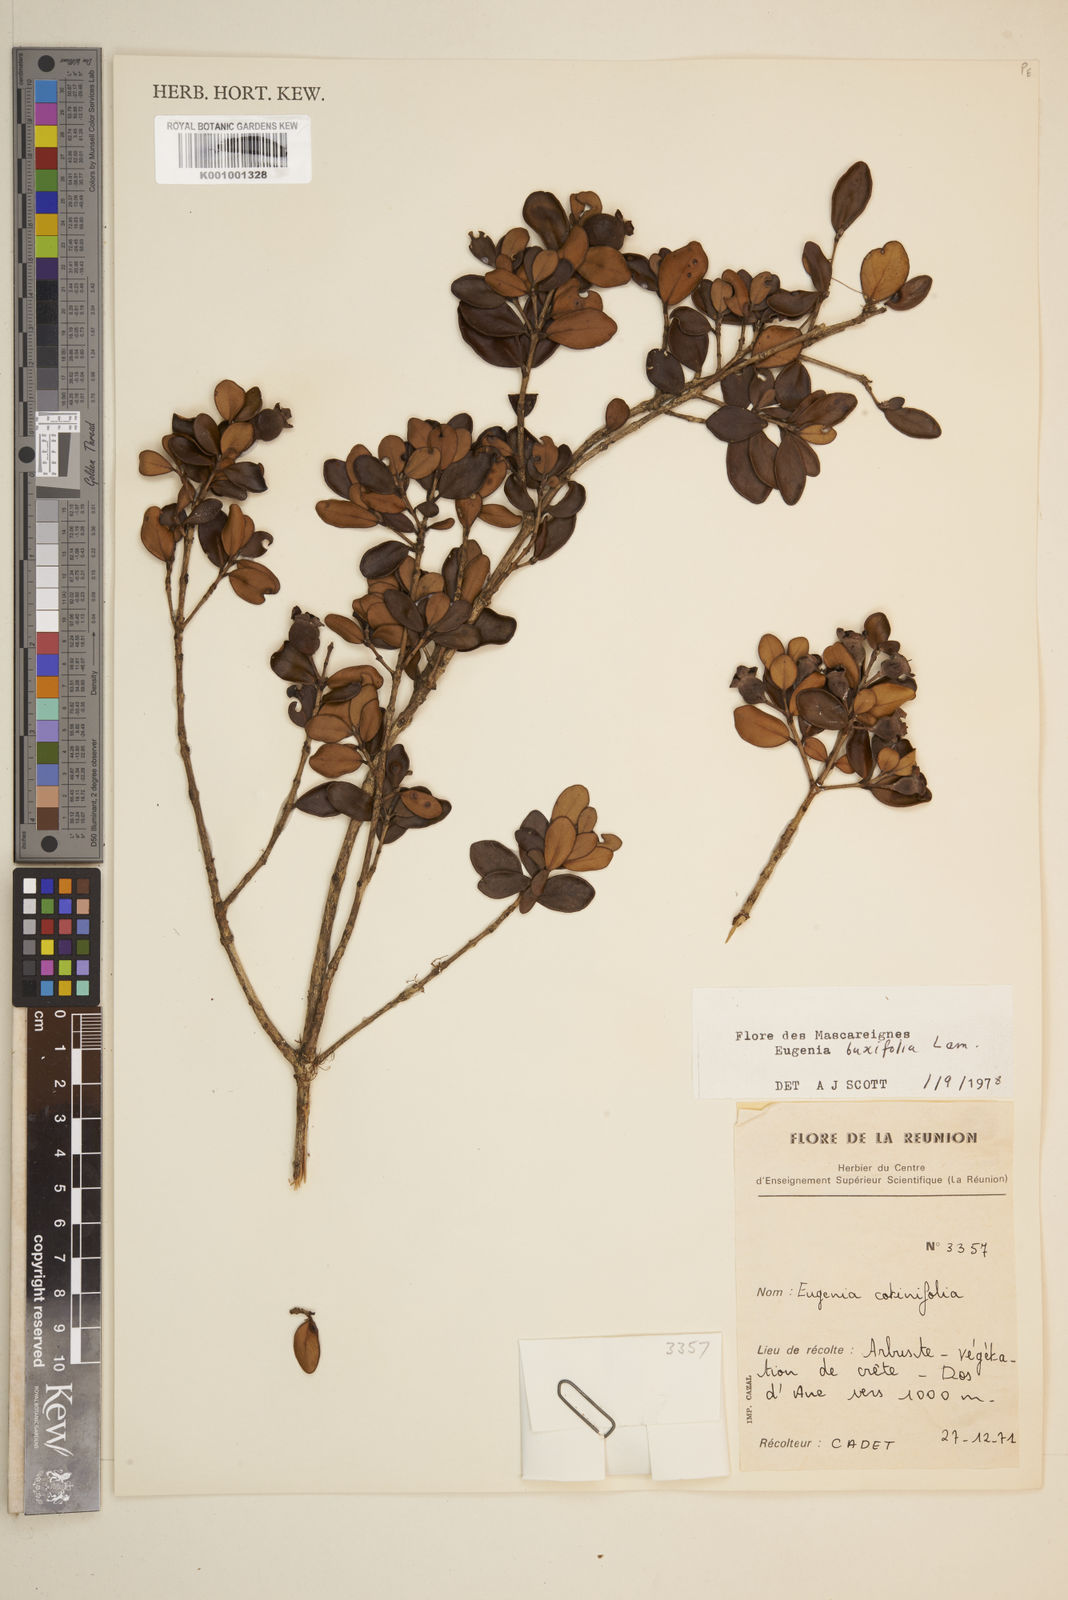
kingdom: Plantae
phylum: Tracheophyta
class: Magnoliopsida
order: Myrtales
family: Myrtaceae
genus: Eugenia
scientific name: Eugenia buxifolia
